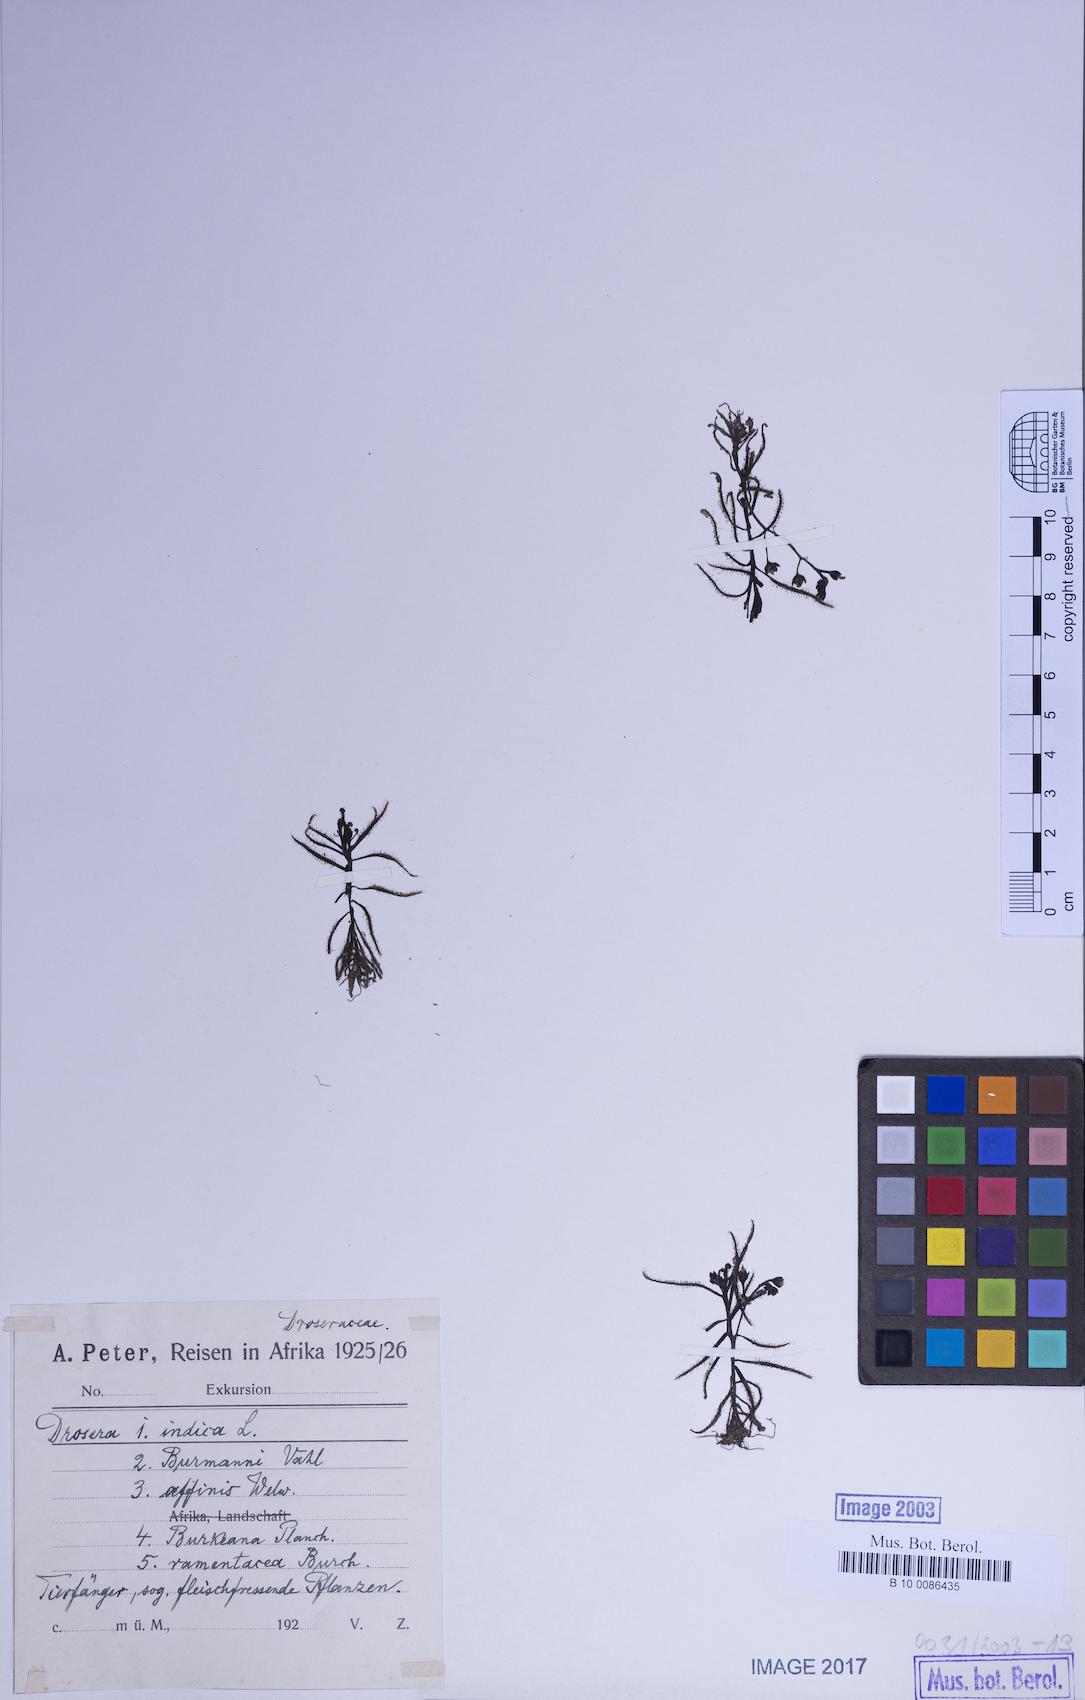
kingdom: Plantae
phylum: Tracheophyta
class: Magnoliopsida
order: Caryophyllales
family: Droseraceae
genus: Drosera
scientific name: Drosera indica
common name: Indian sundew
